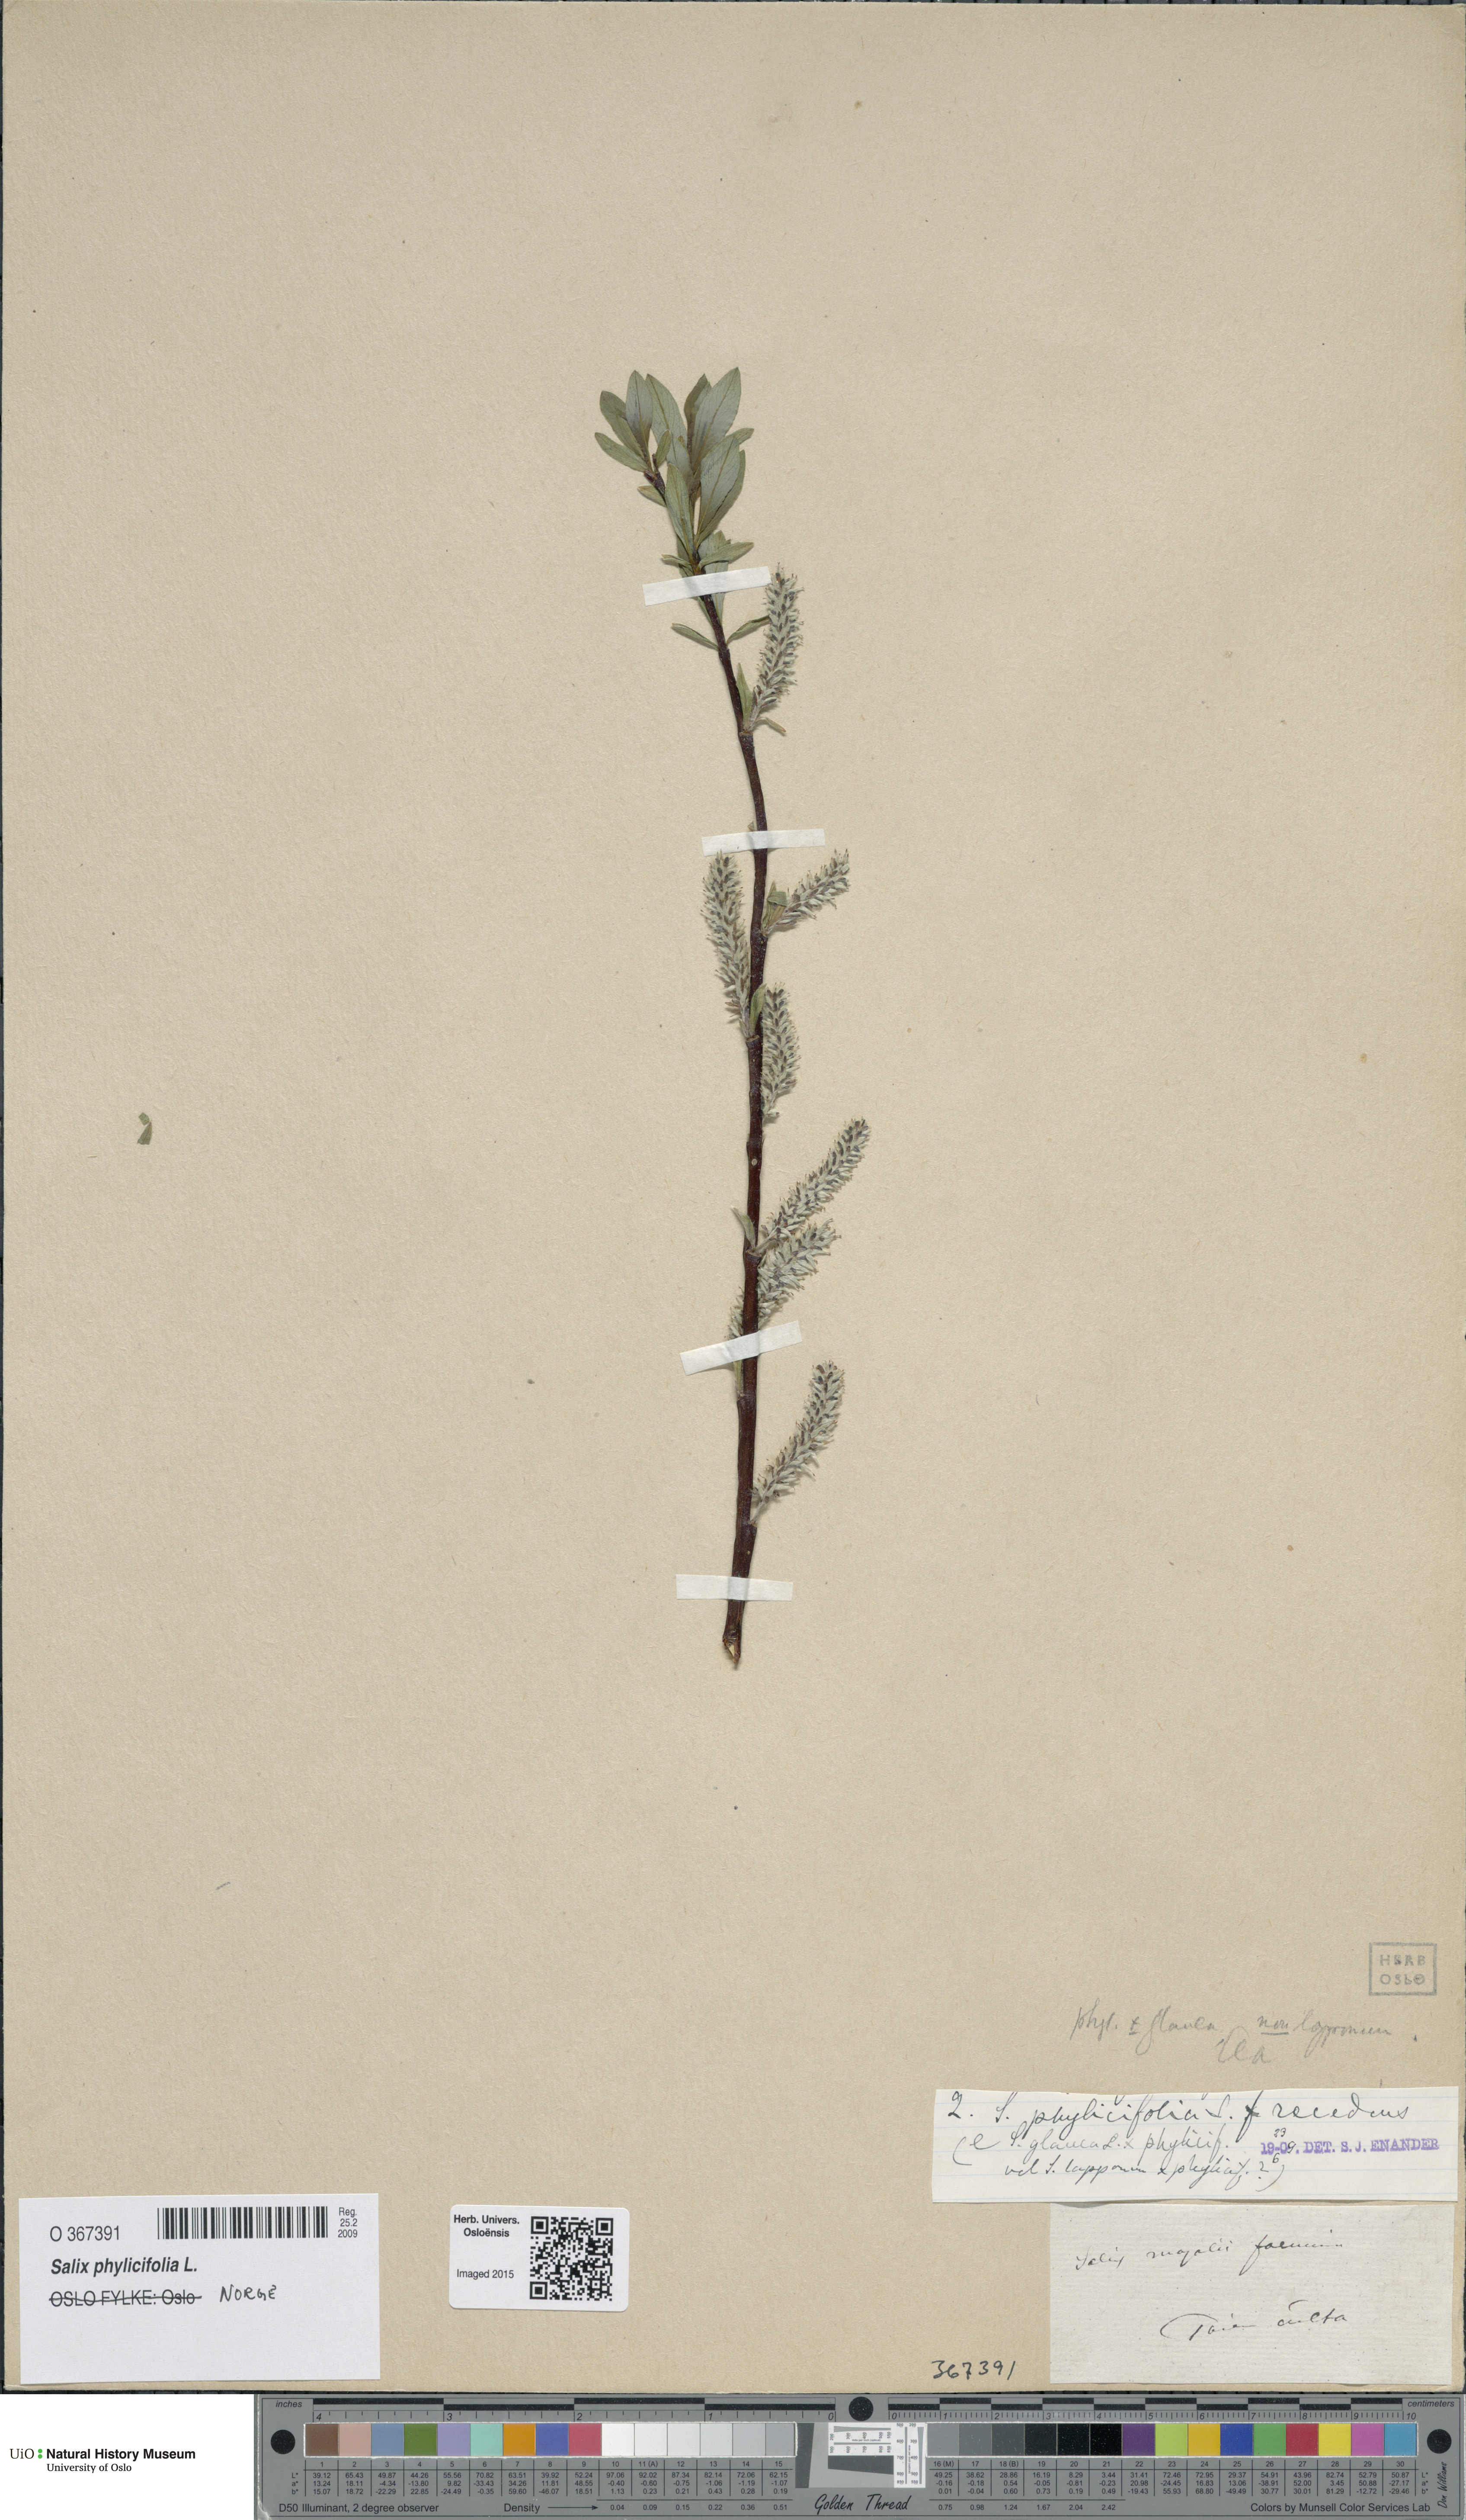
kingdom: Plantae
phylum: Tracheophyta
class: Magnoliopsida
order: Malpighiales
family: Salicaceae
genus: Salix
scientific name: Salix phylicifolia
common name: Tea-leaved willow
